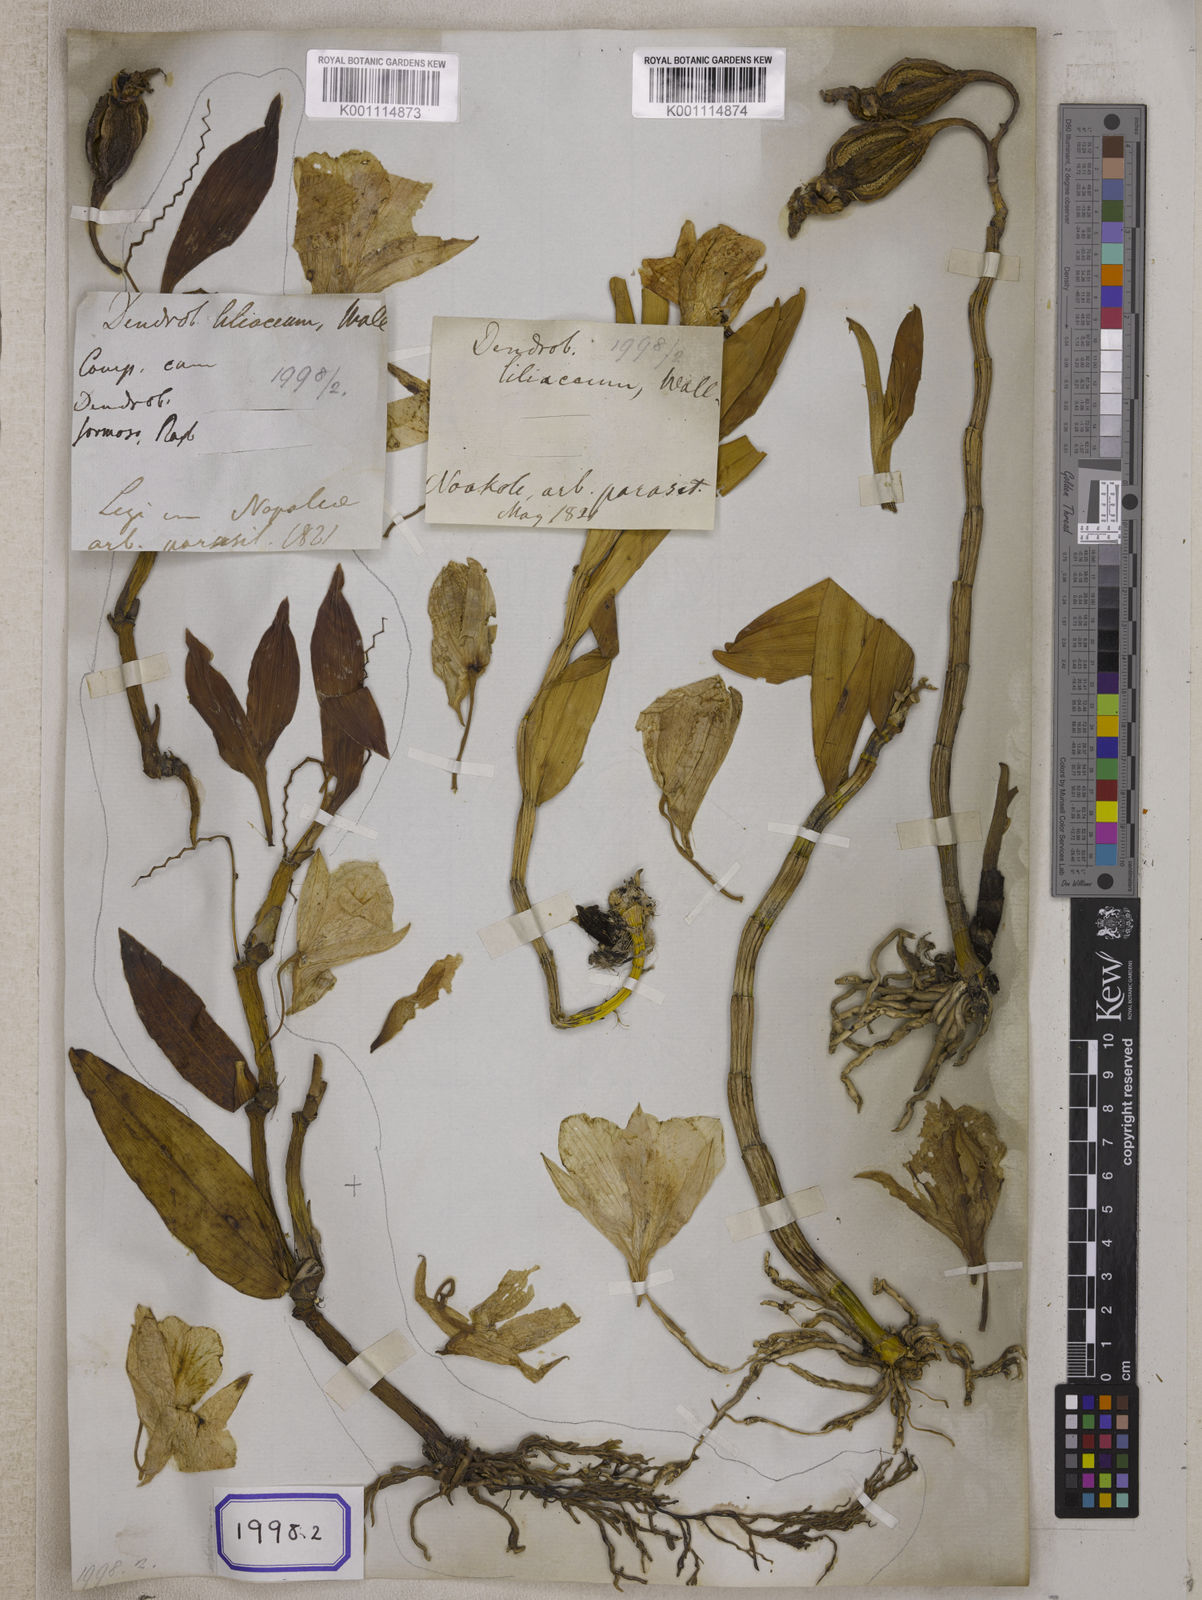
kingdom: Plantae
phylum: Tracheophyta
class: Liliopsida
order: Asparagales
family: Orchidaceae
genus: Dendrobium
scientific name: Dendrobium
